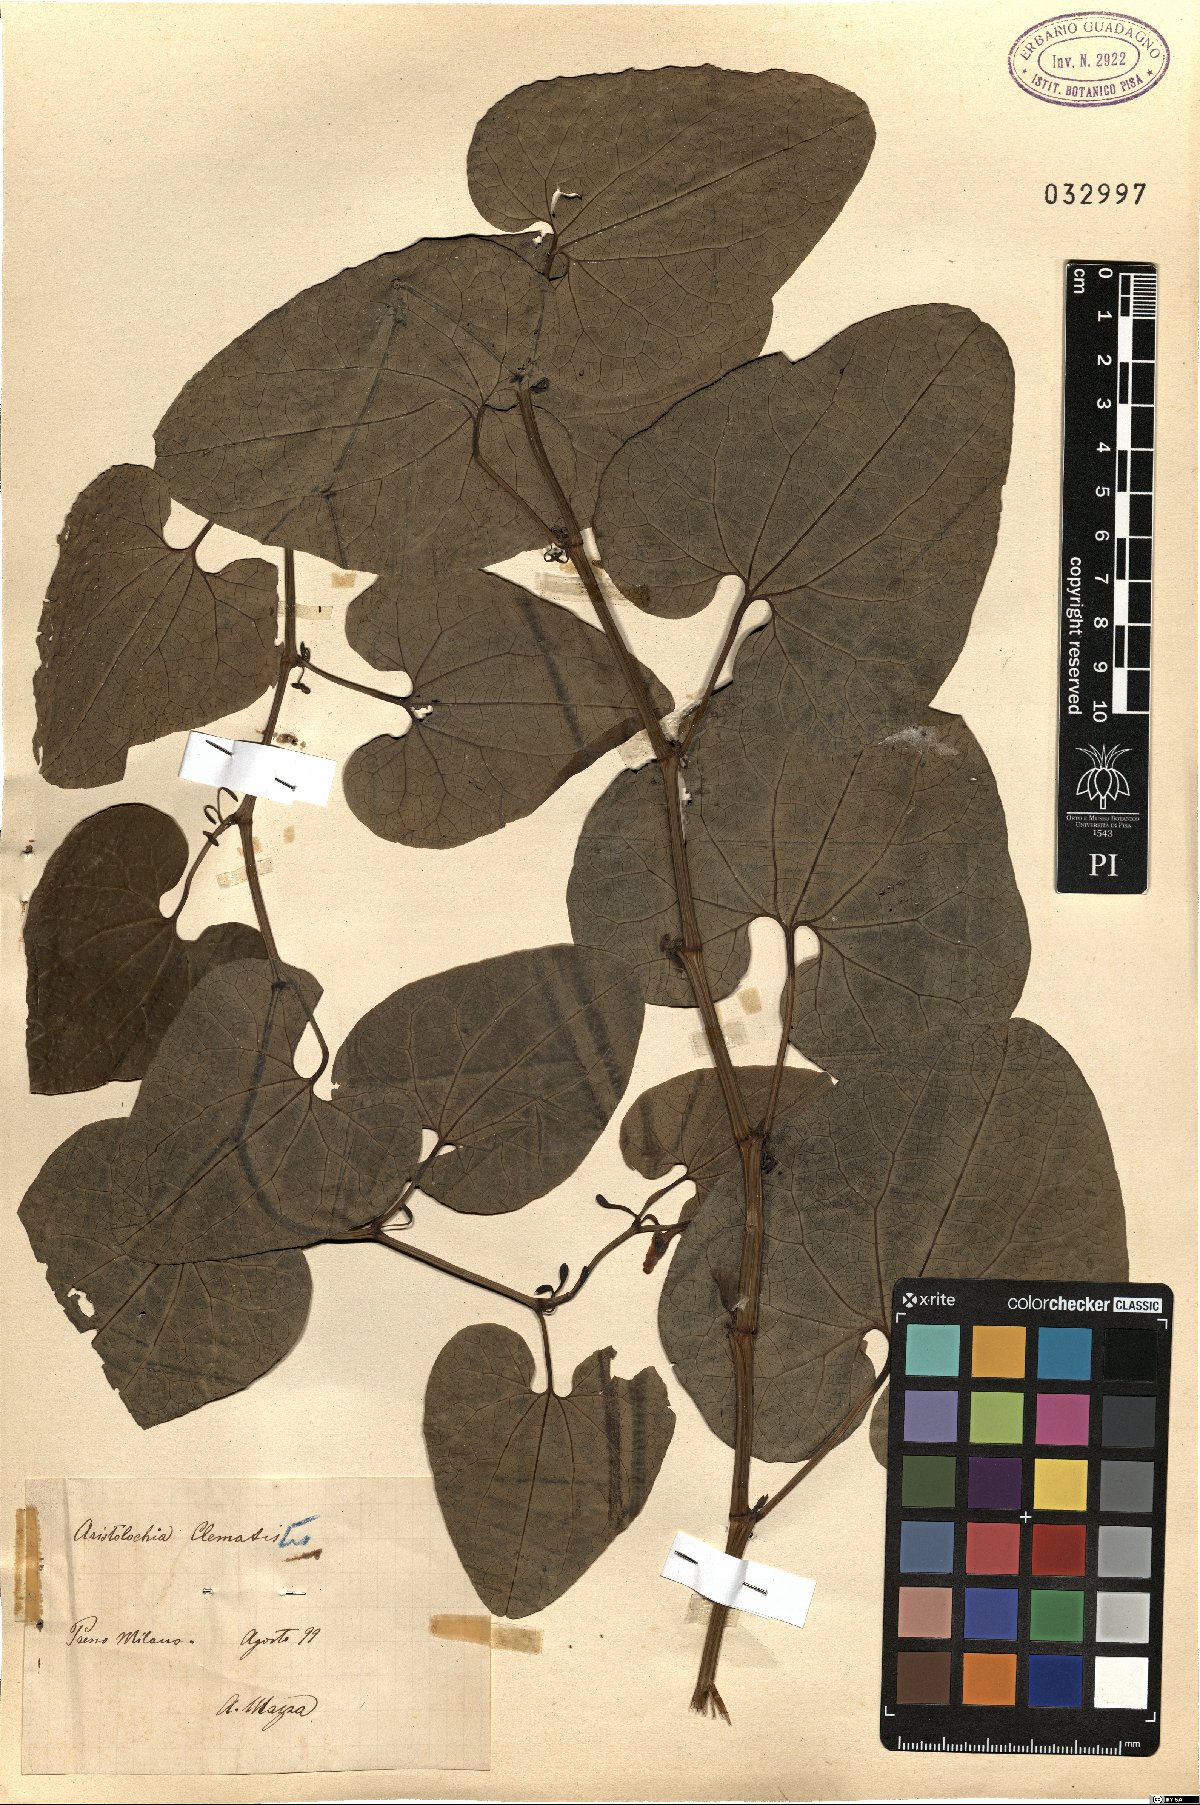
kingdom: Plantae
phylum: Tracheophyta
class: Magnoliopsida
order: Piperales
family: Aristolochiaceae
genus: Aristolochia
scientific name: Aristolochia clematitis
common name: Birthwort
